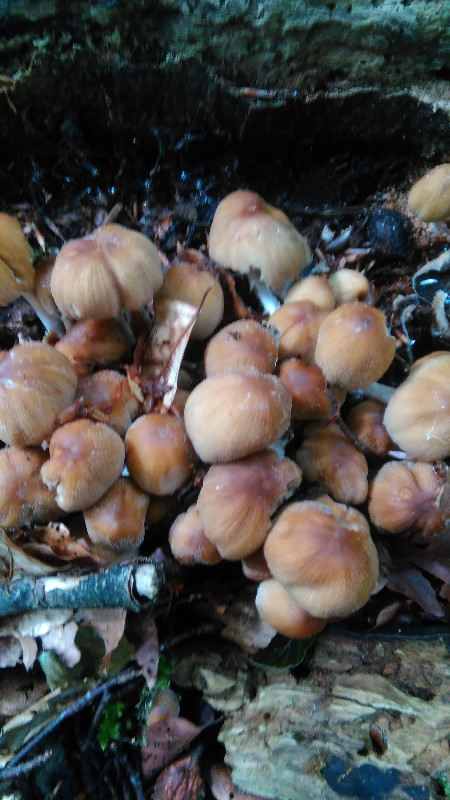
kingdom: Fungi
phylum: Basidiomycota
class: Agaricomycetes
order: Agaricales
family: Psathyrellaceae
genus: Coprinellus
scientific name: Coprinellus micaceus
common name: glimmer-blækhat
